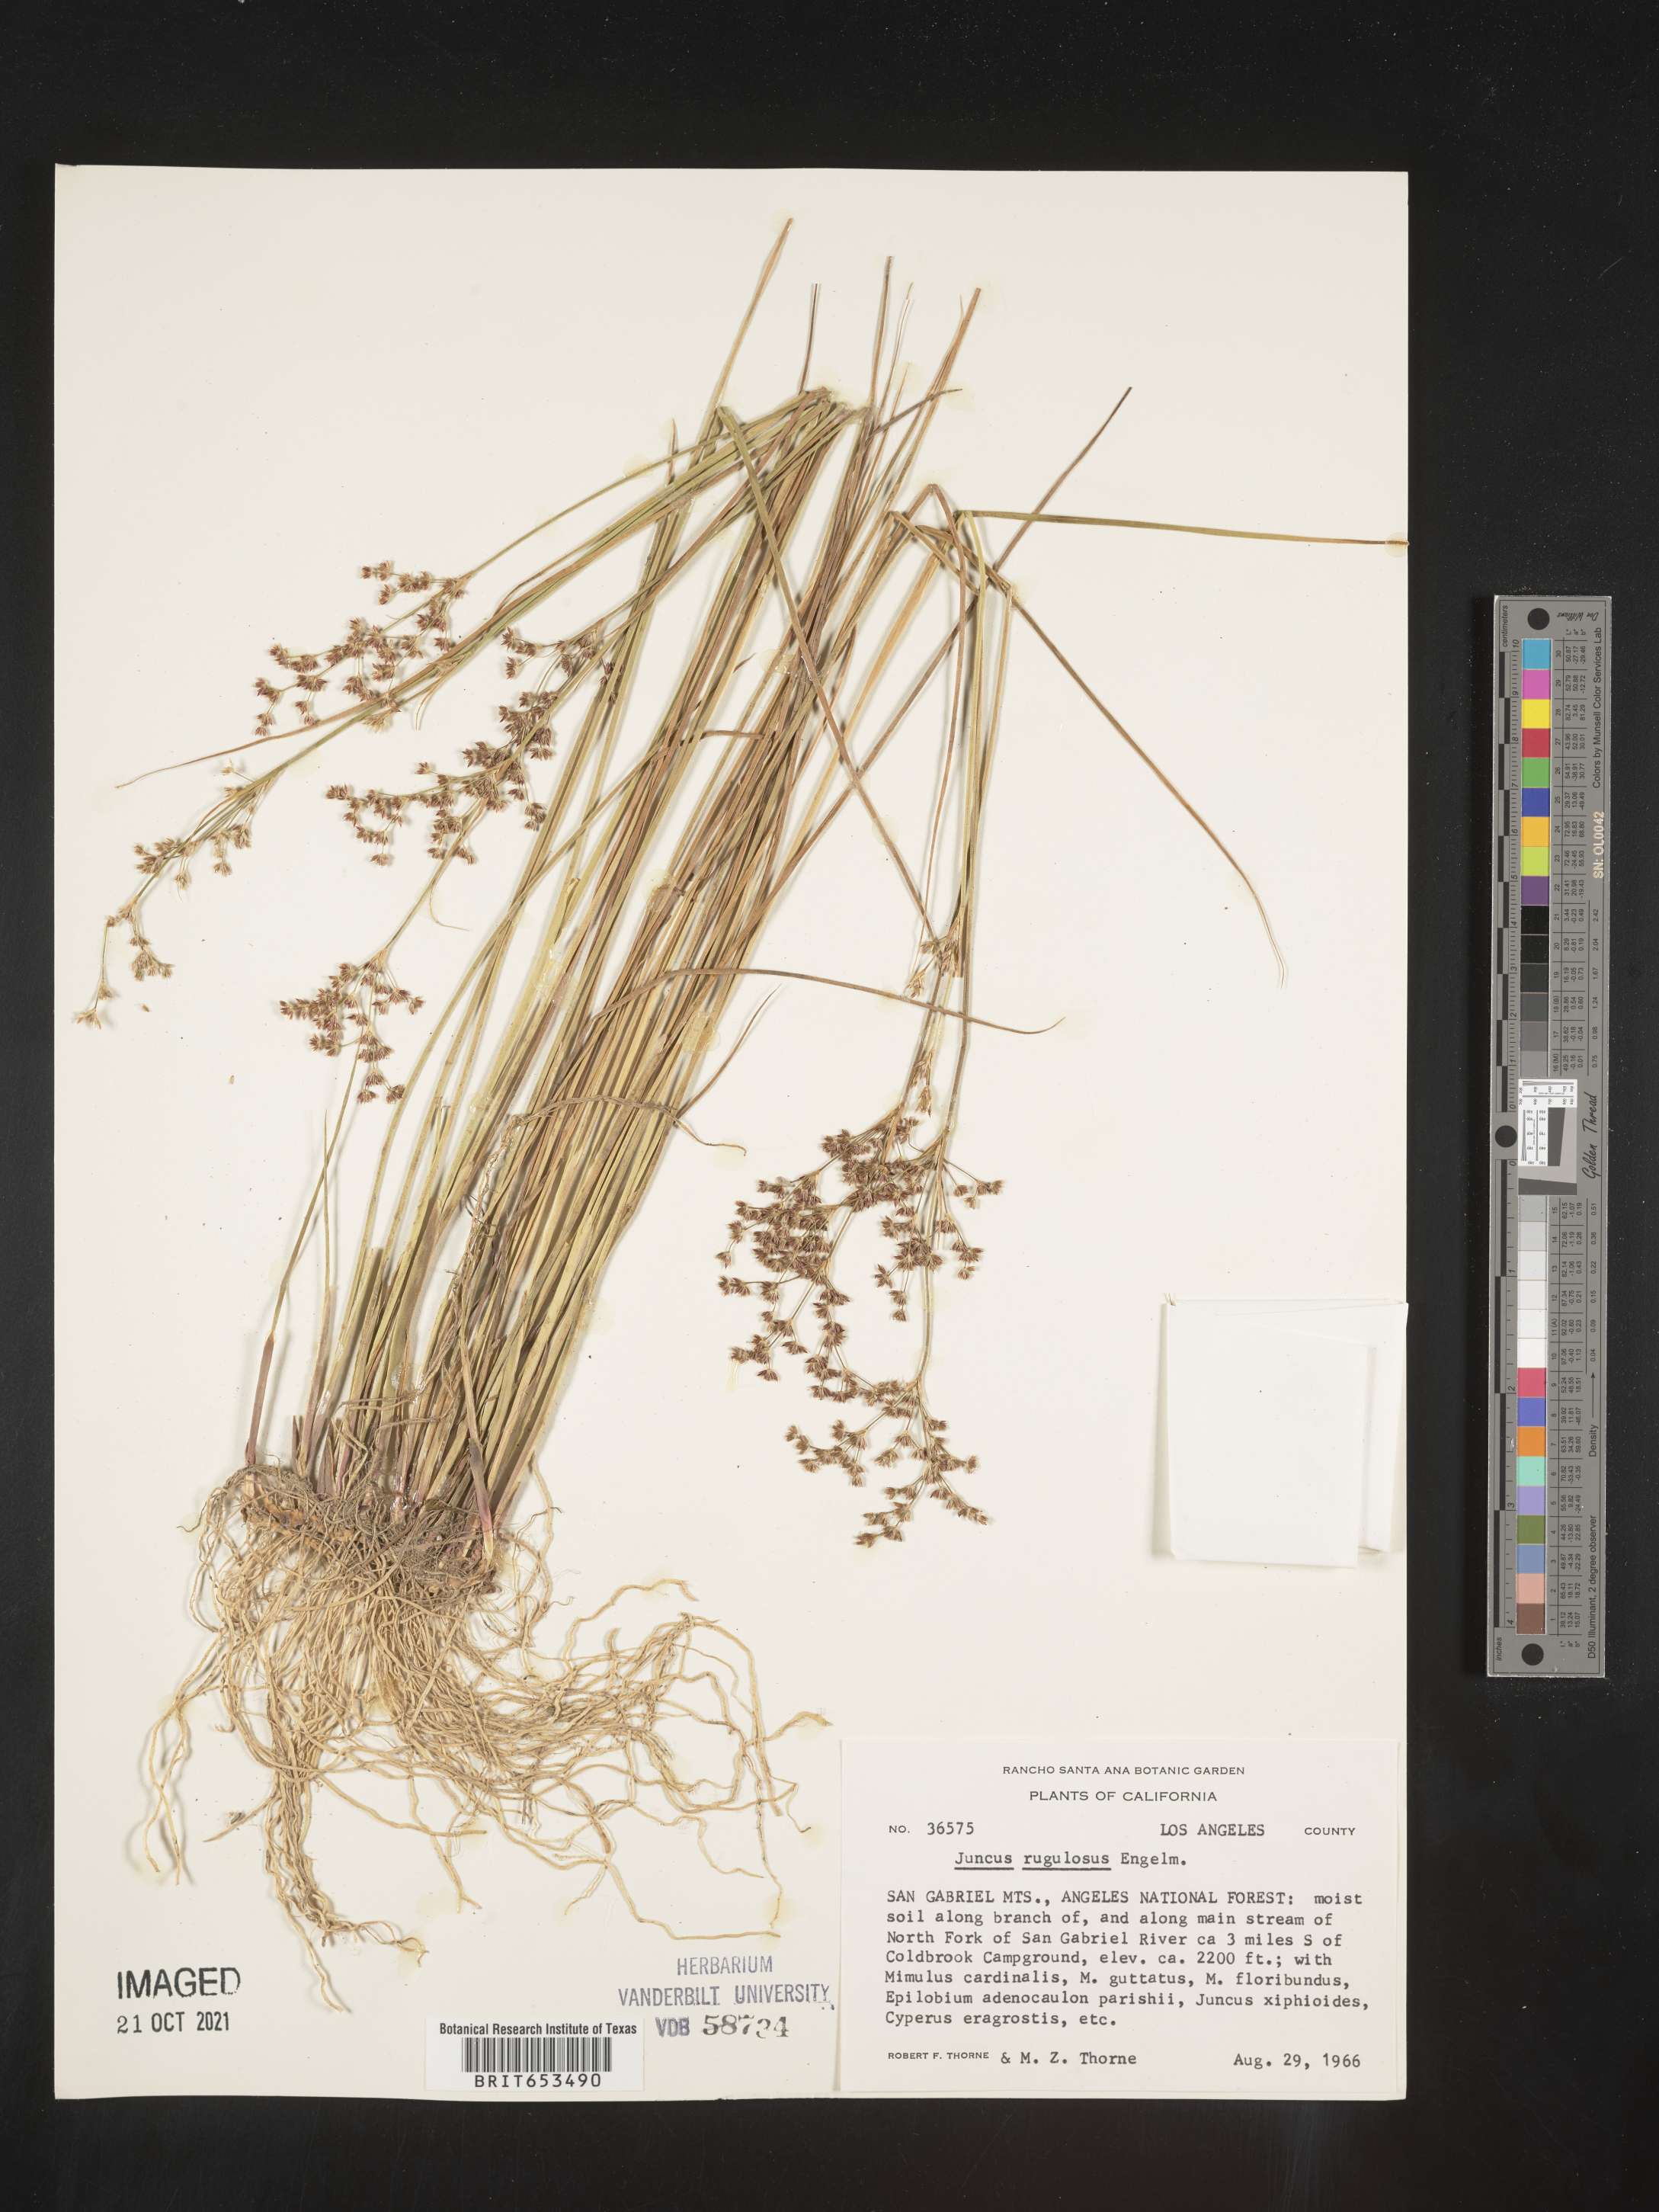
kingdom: Plantae
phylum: Tracheophyta
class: Liliopsida
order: Poales
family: Juncaceae
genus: Juncus
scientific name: Juncus rugulosus
